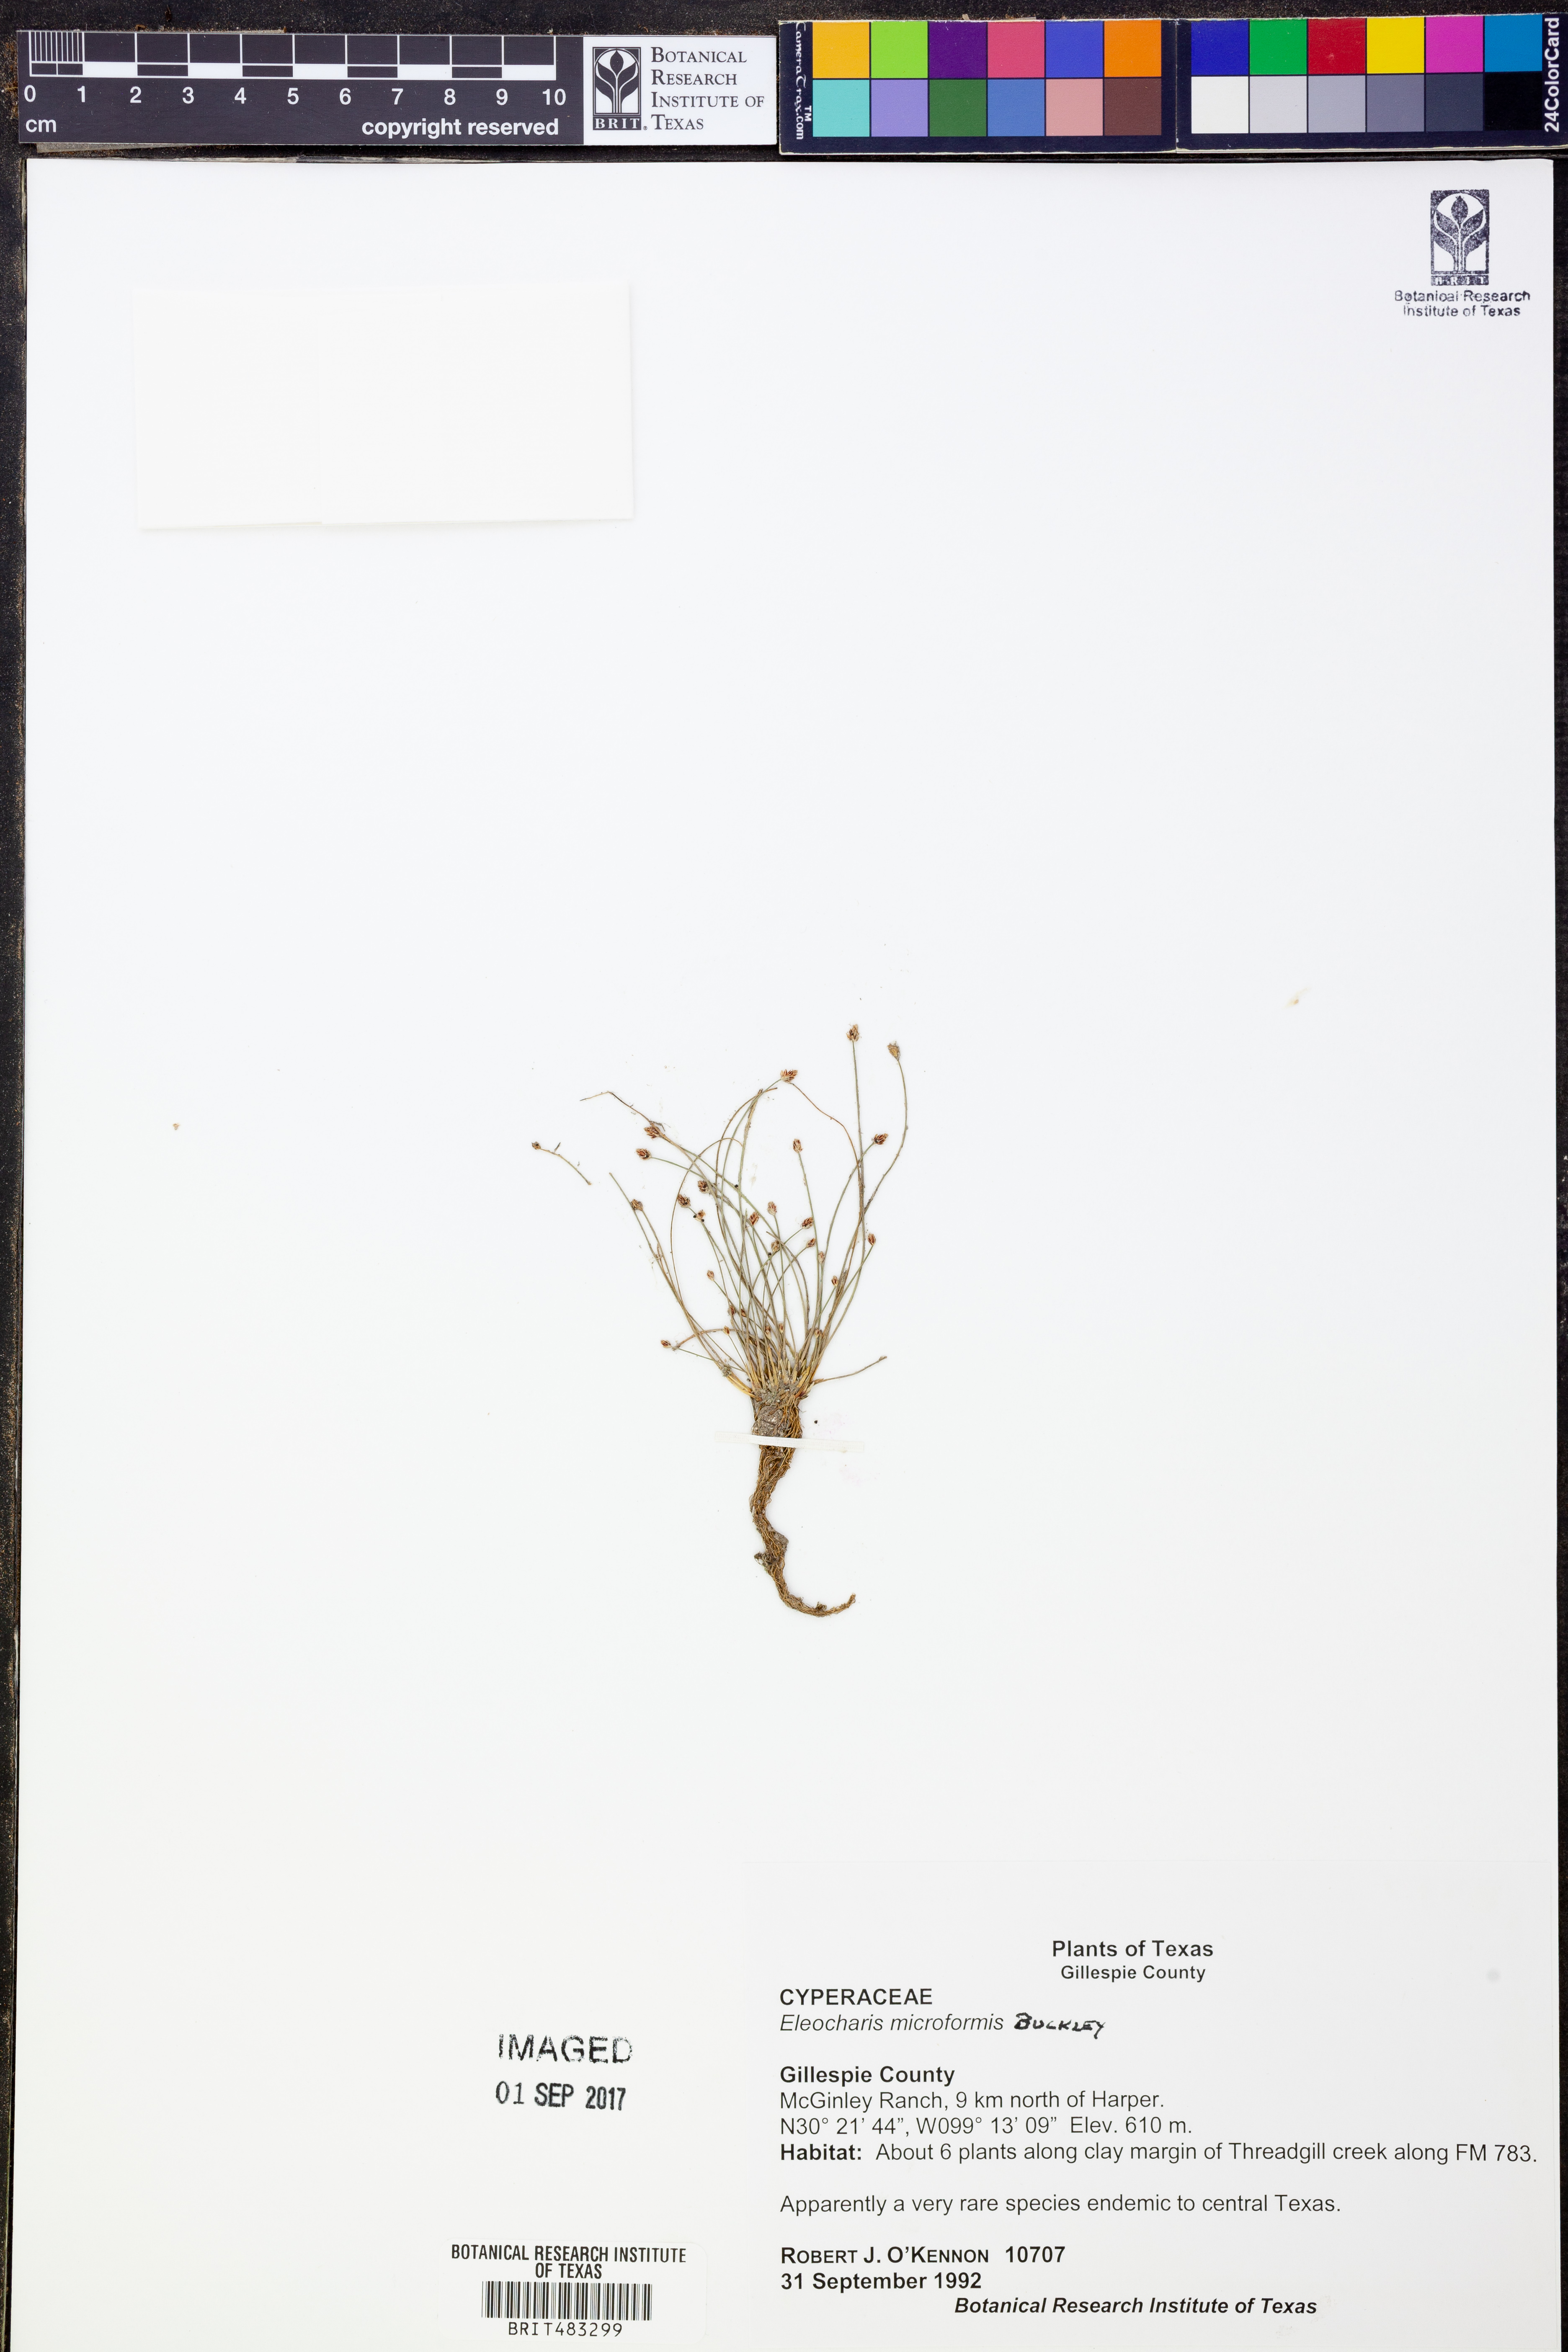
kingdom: Plantae
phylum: Tracheophyta
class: Liliopsida
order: Poales
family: Cyperaceae
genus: Eleocharis
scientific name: Eleocharis microformis
